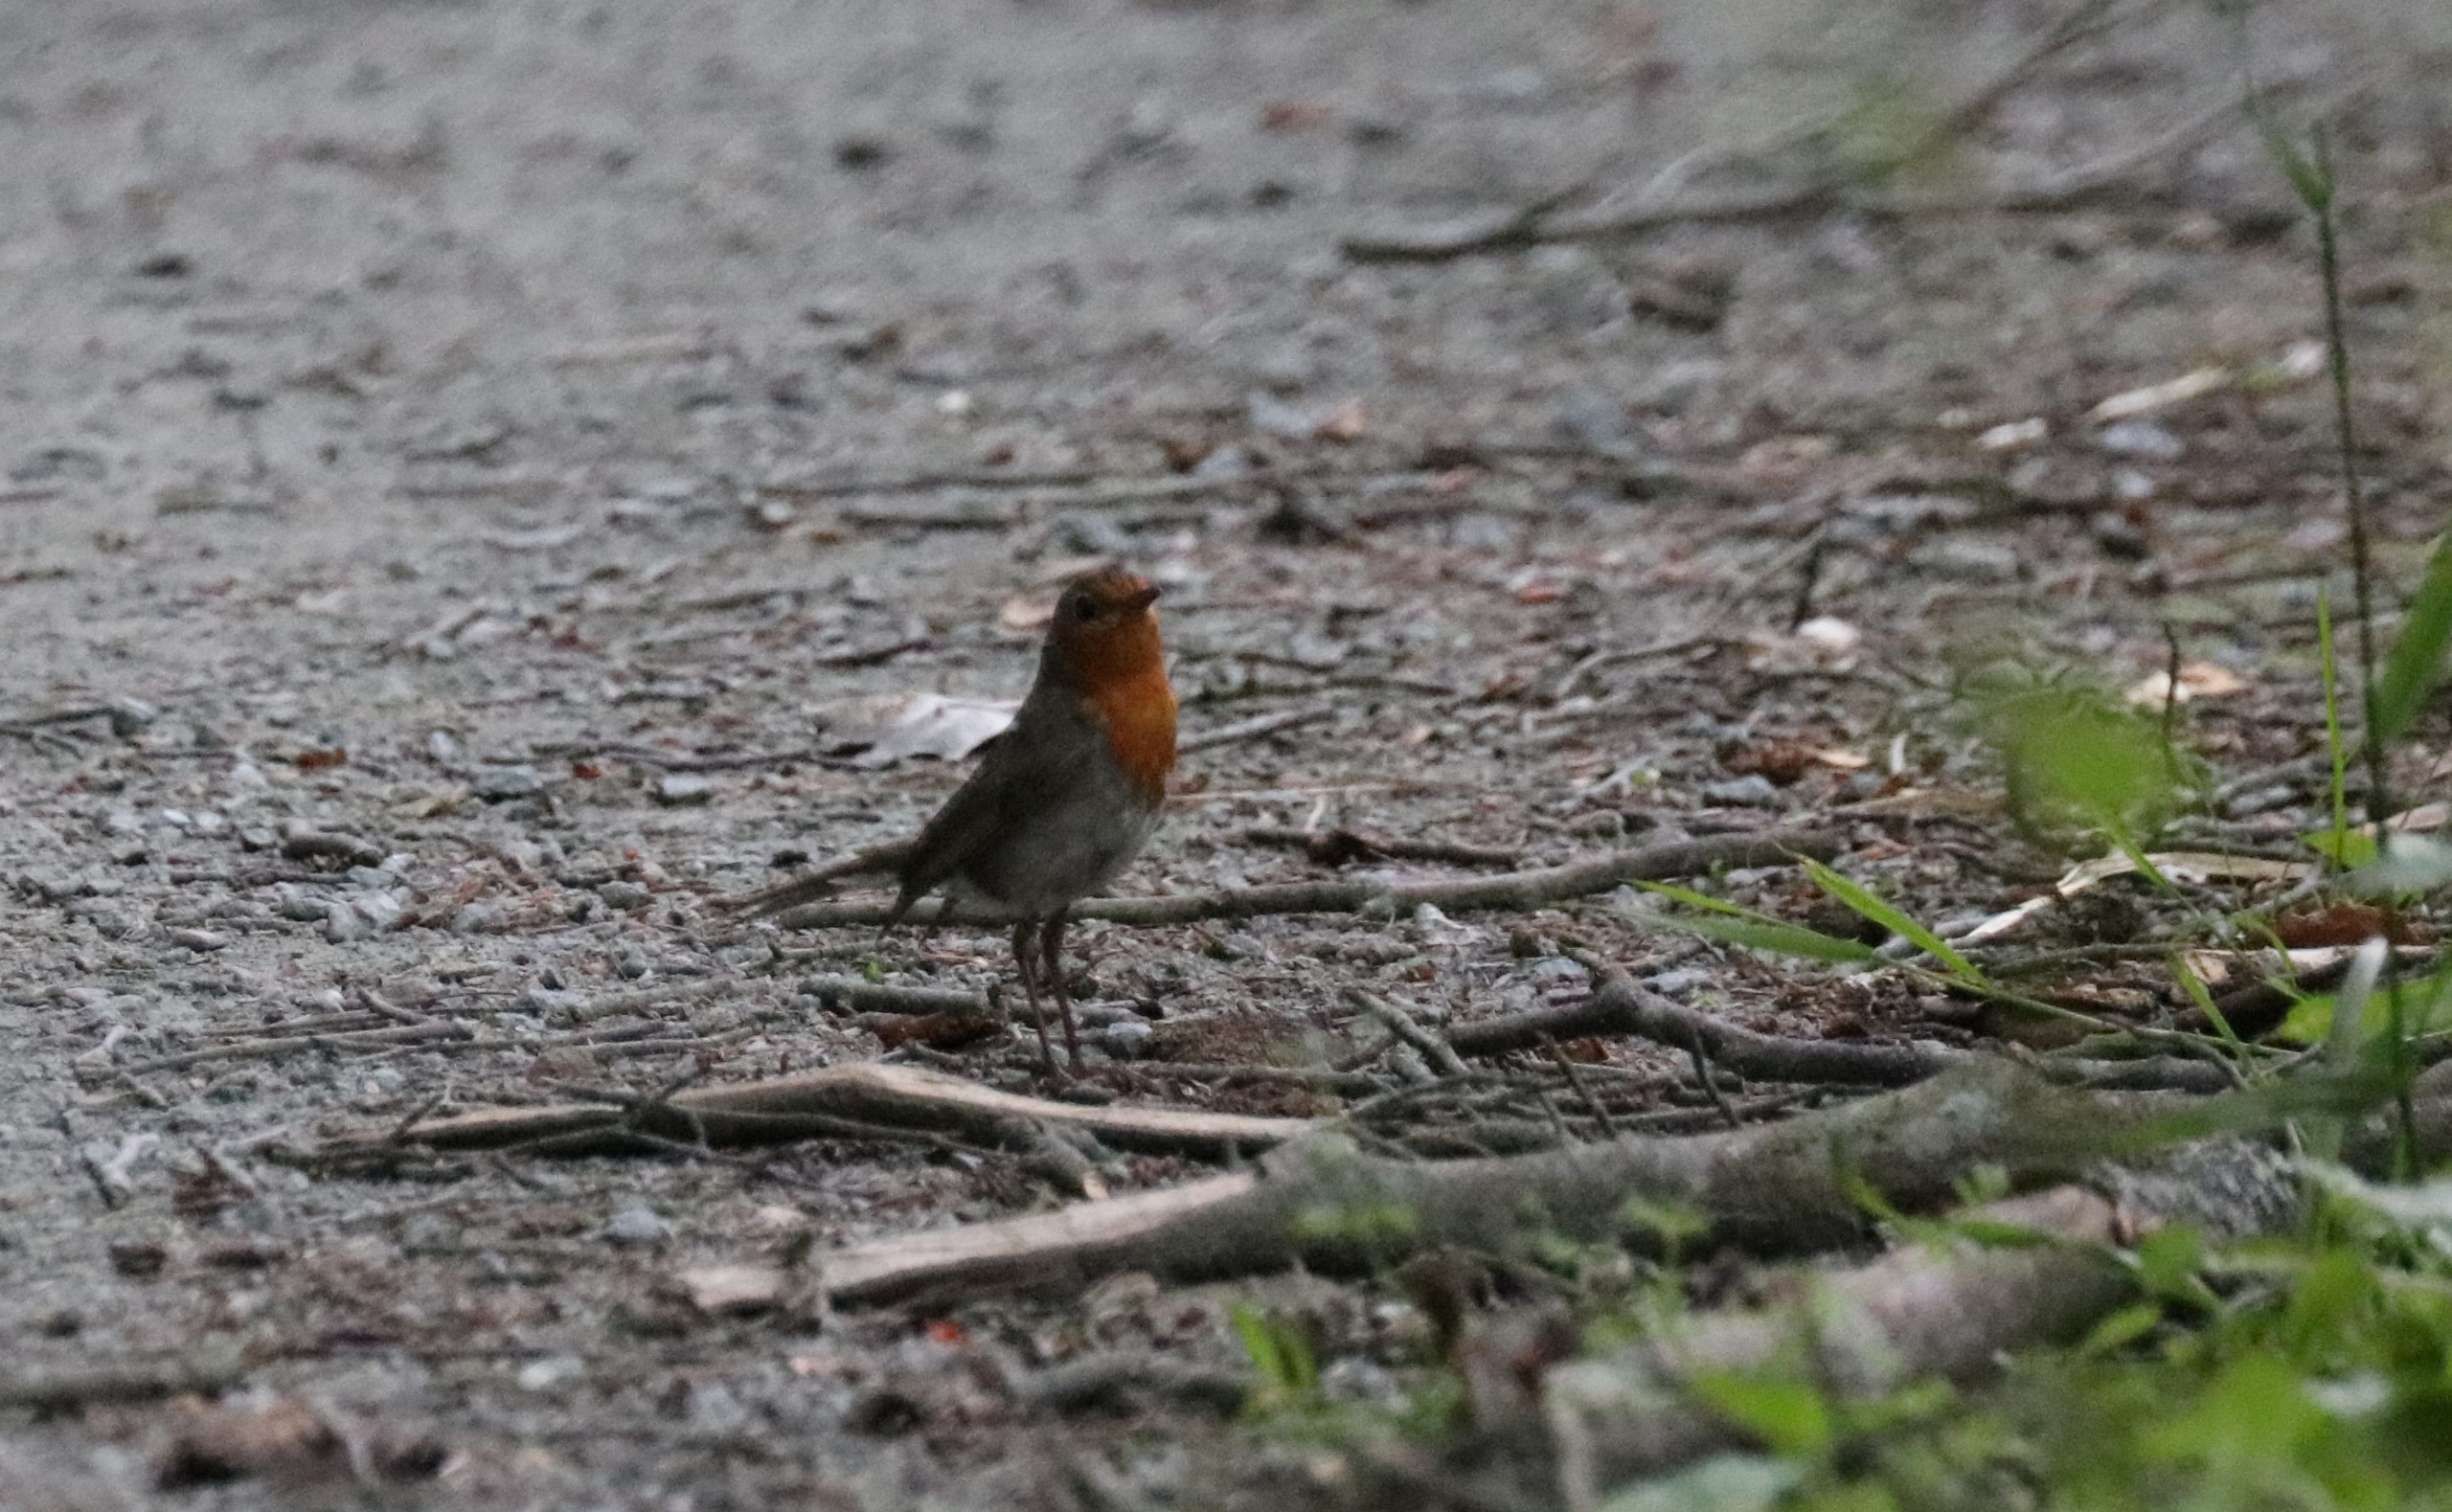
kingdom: Animalia
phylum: Chordata
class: Aves
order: Passeriformes
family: Muscicapidae
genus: Erithacus
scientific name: Erithacus rubecula
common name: Rødhals/rødkælk
